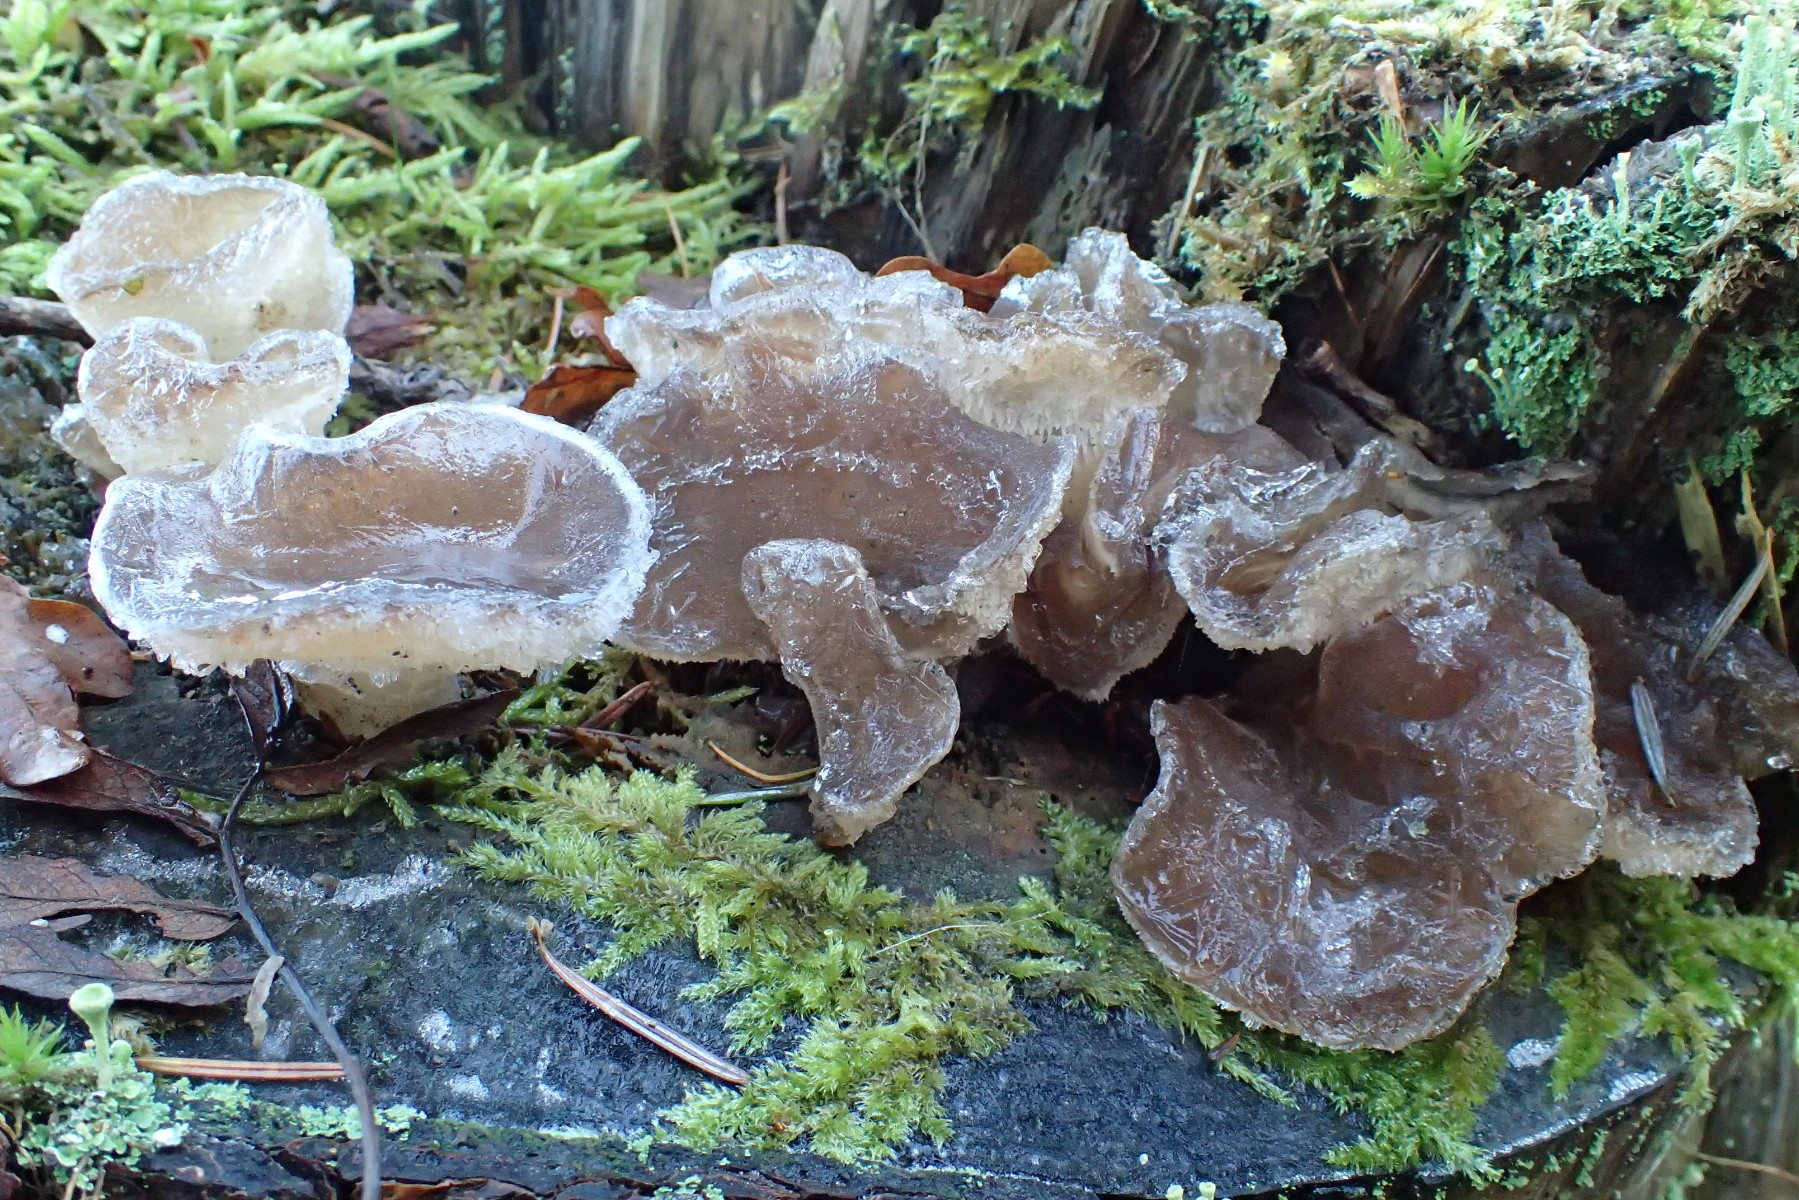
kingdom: Fungi
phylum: Basidiomycota
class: Agaricomycetes
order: Auriculariales
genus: Pseudohydnum
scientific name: Pseudohydnum gelatinosum
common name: bævretand
